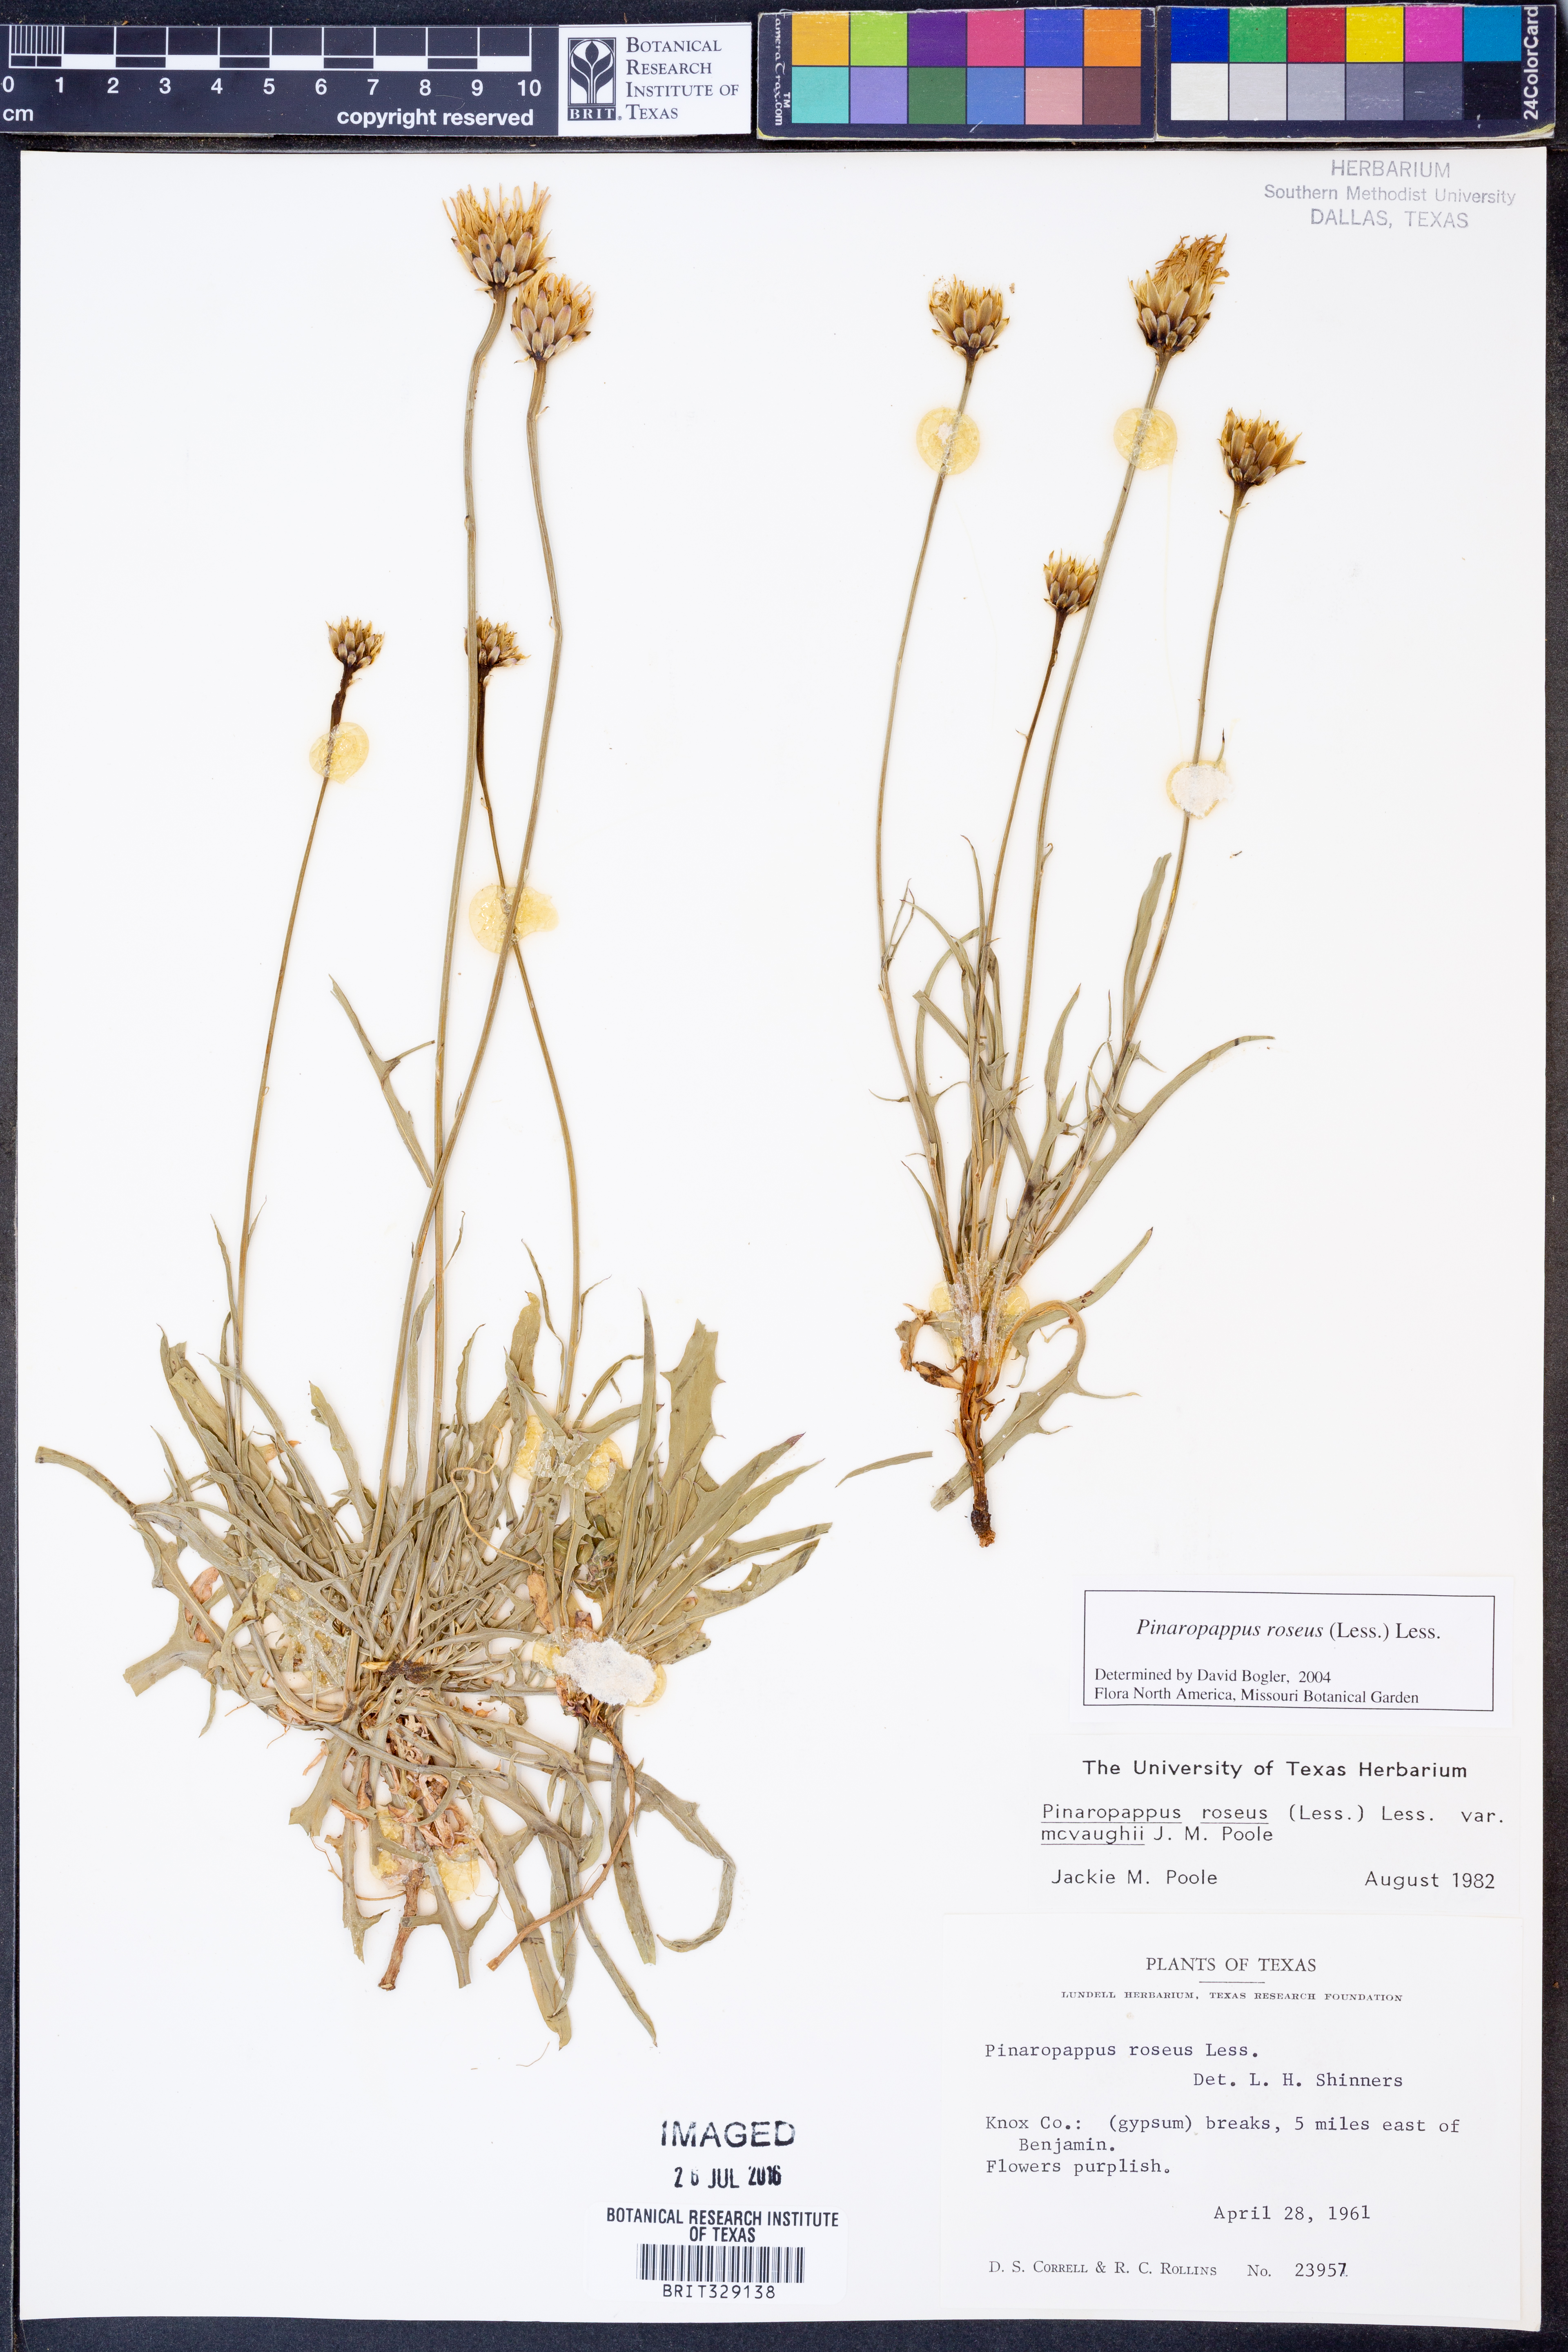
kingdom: Plantae
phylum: Tracheophyta
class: Magnoliopsida
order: Asterales
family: Asteraceae
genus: Pinaropappus
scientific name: Pinaropappus roseus
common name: Rock-lettuce
